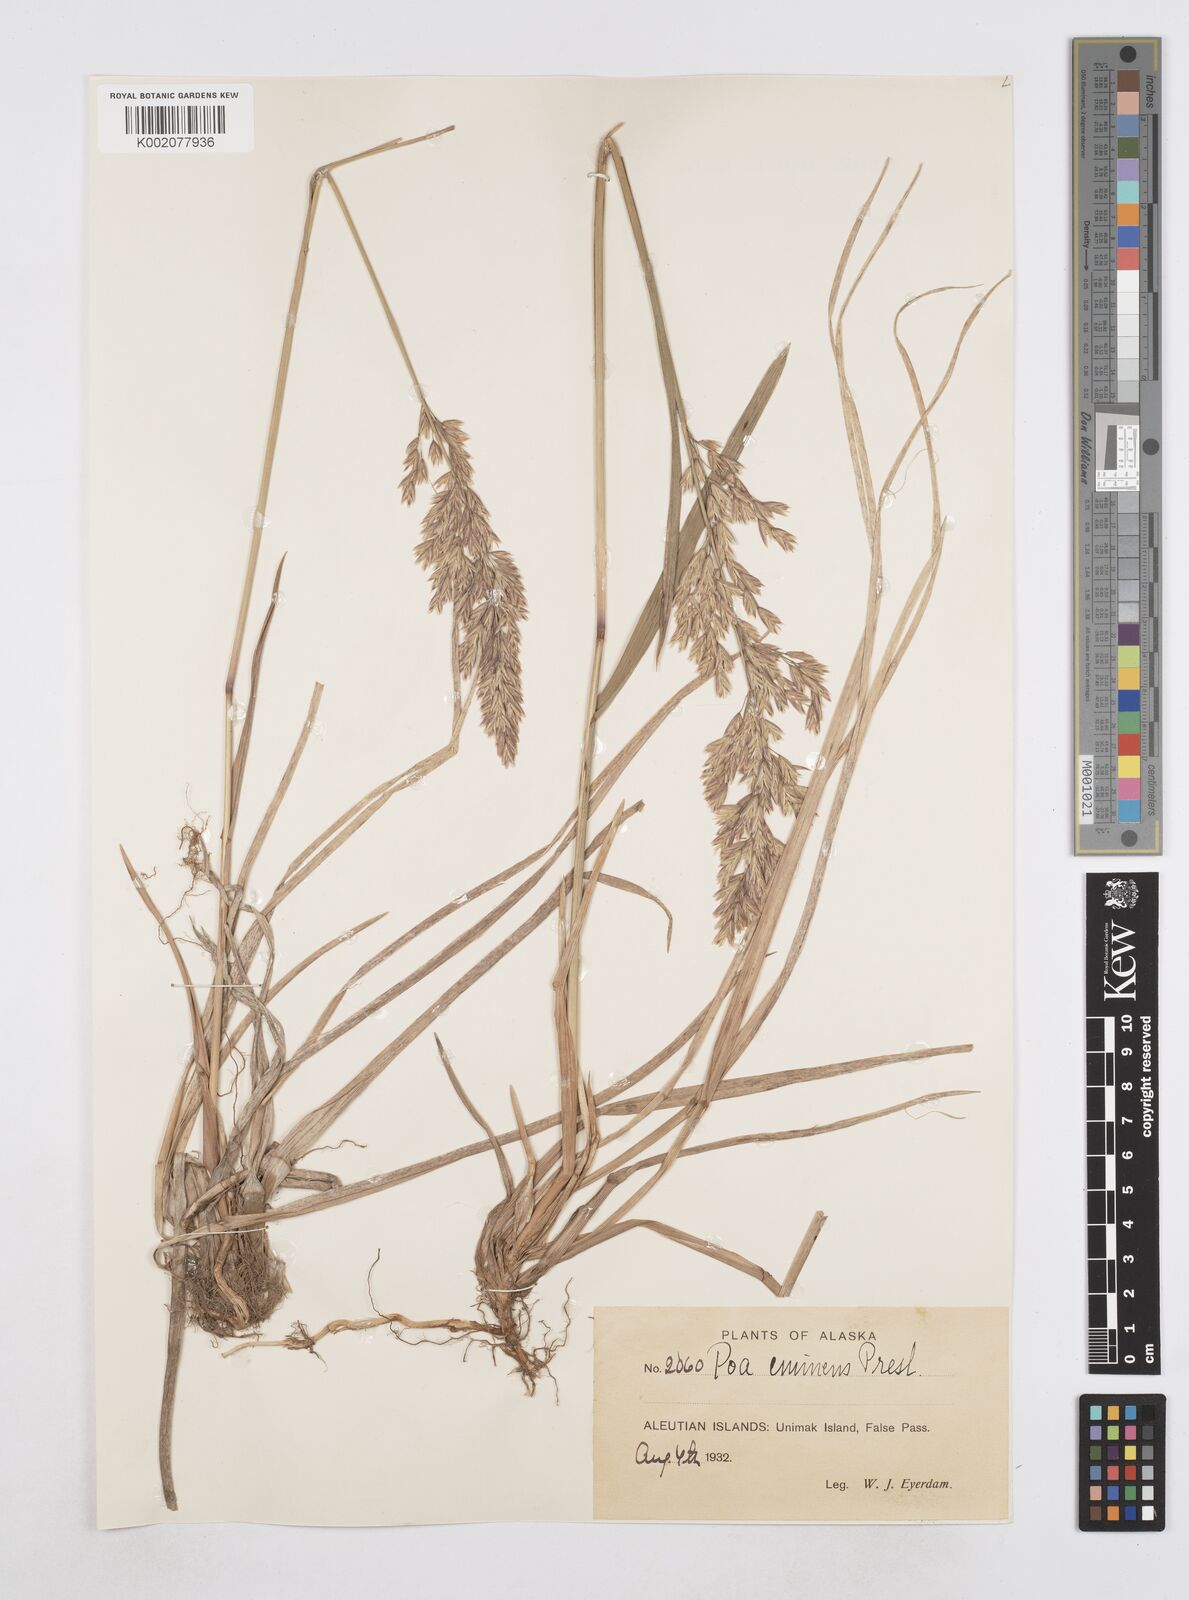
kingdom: Plantae
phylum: Tracheophyta
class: Liliopsida
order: Poales
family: Poaceae
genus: Arctopoa
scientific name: Arctopoa eminens
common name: Eminent bluegrass
